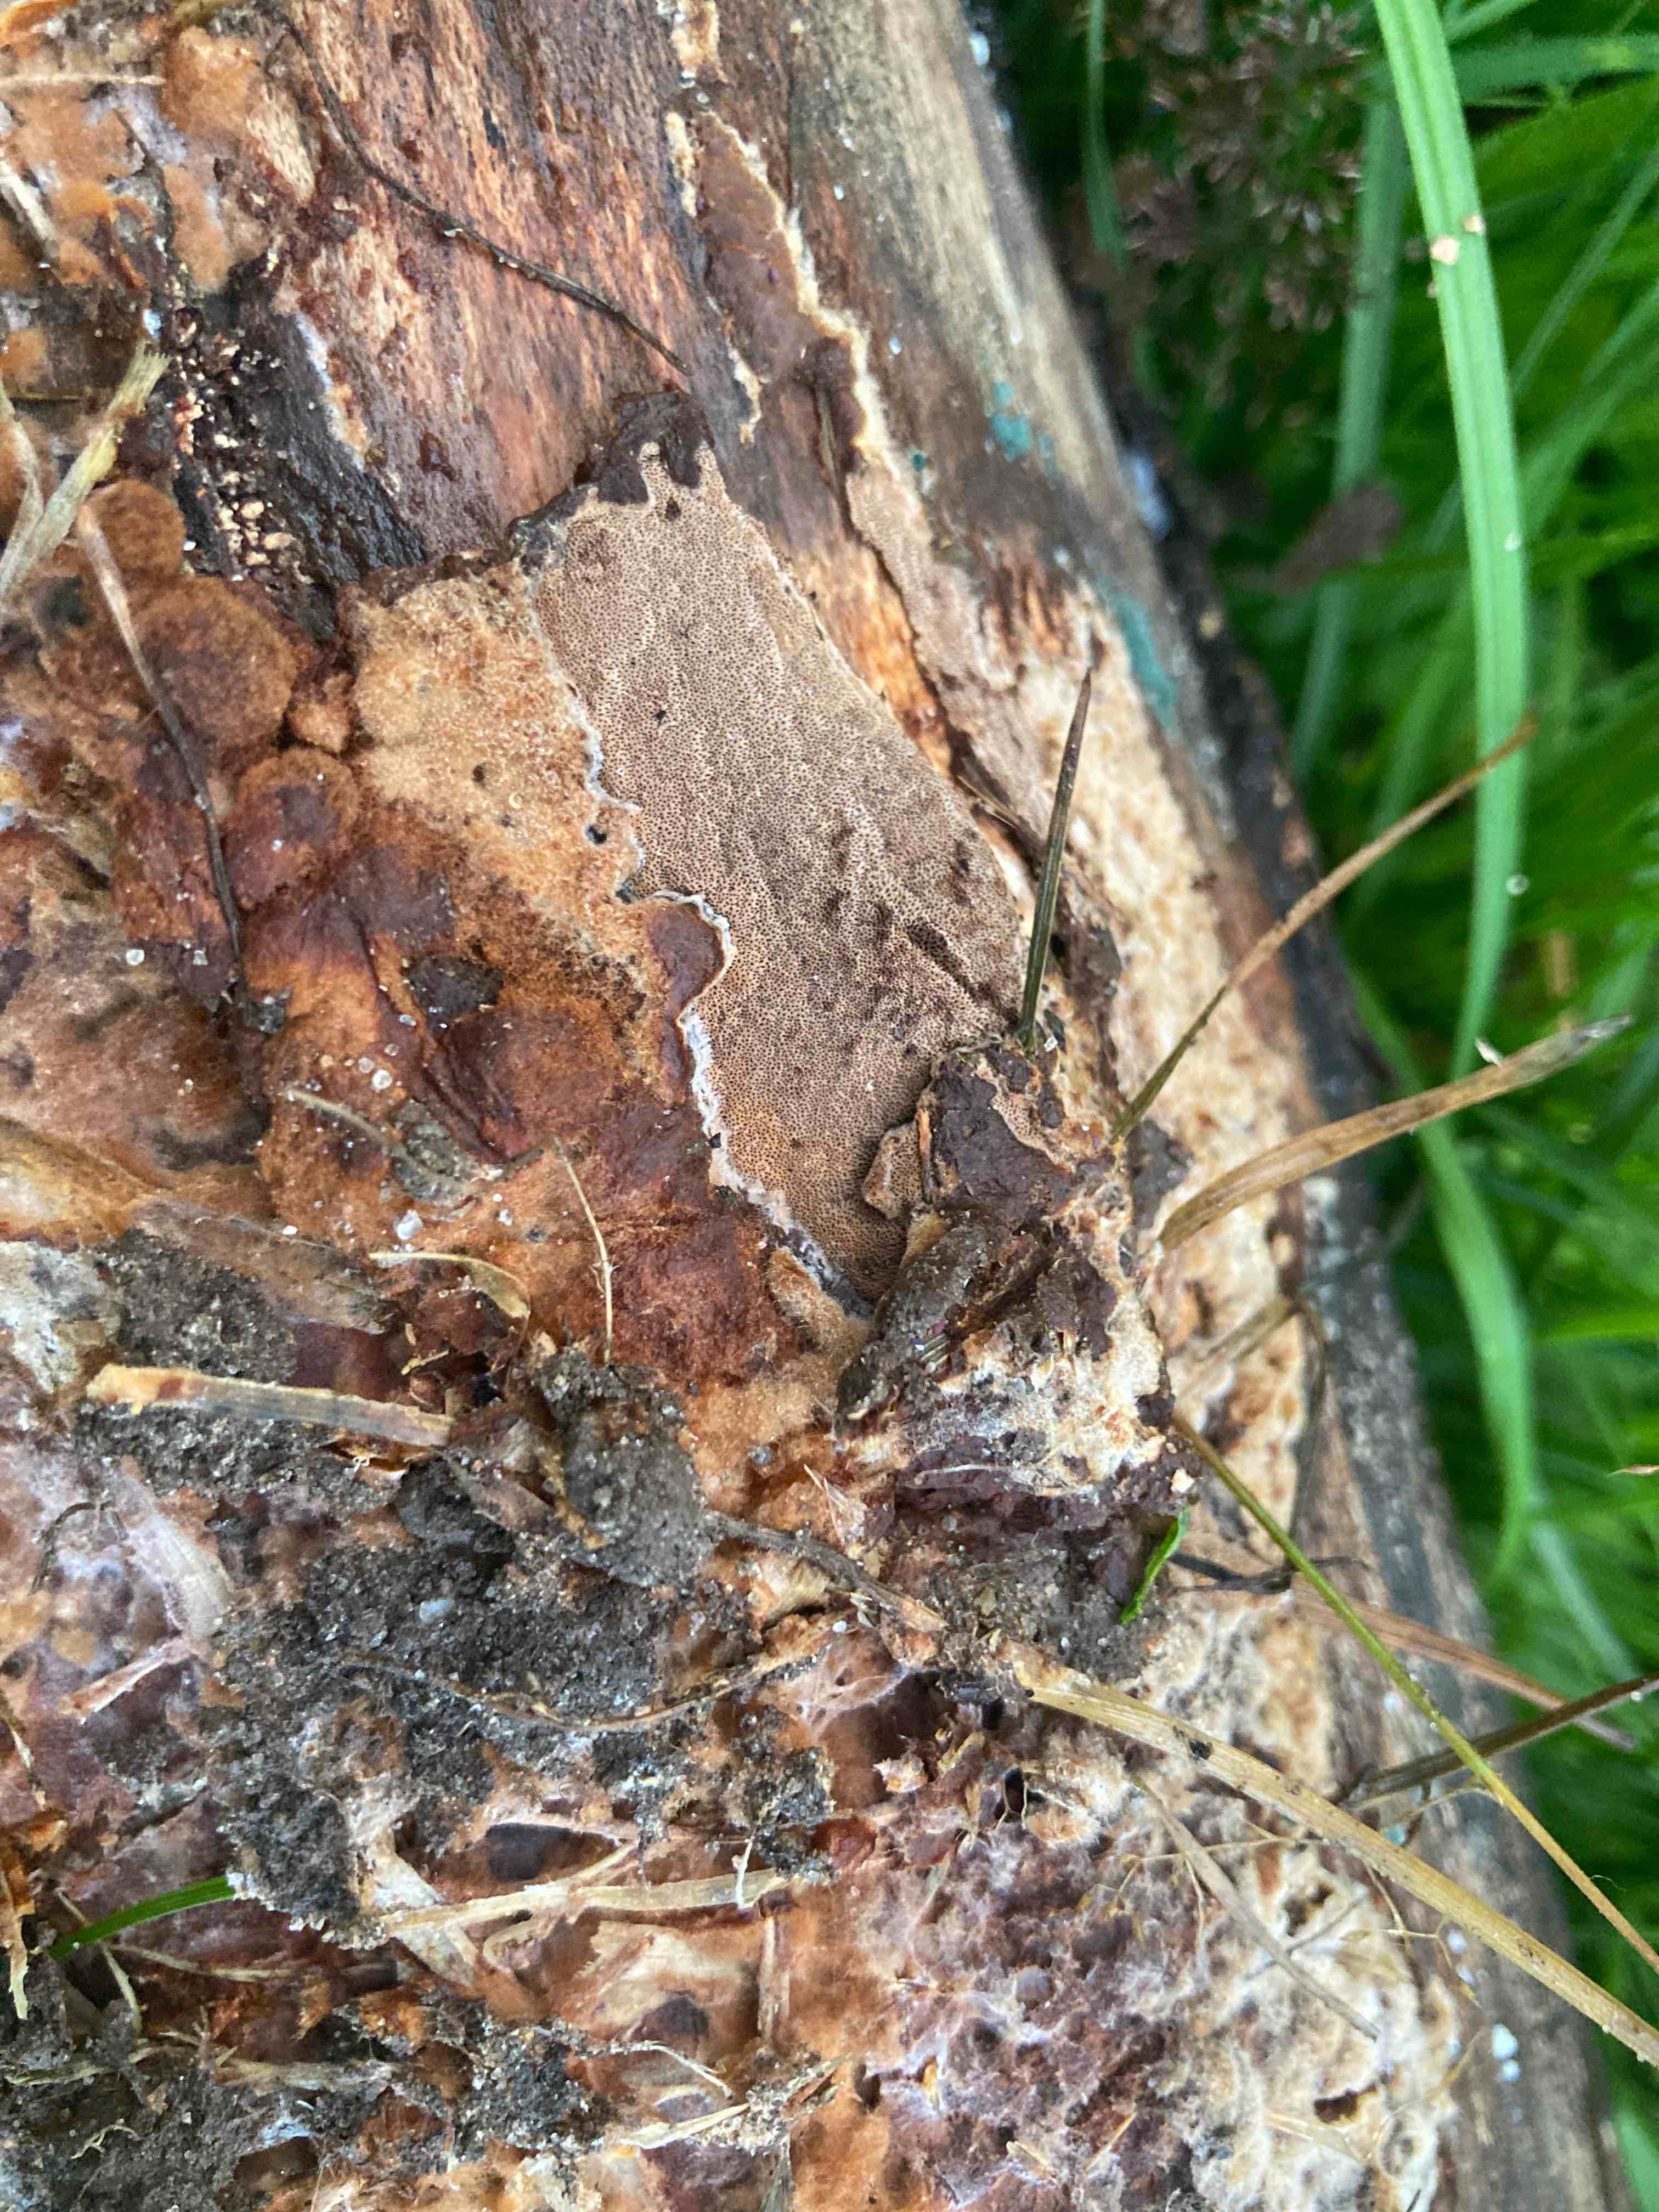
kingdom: Fungi
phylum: Basidiomycota
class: Agaricomycetes
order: Hymenochaetales
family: Hymenochaetaceae
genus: Fuscoporia
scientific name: Fuscoporia ferrea
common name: skorpe-ildporesvamp
